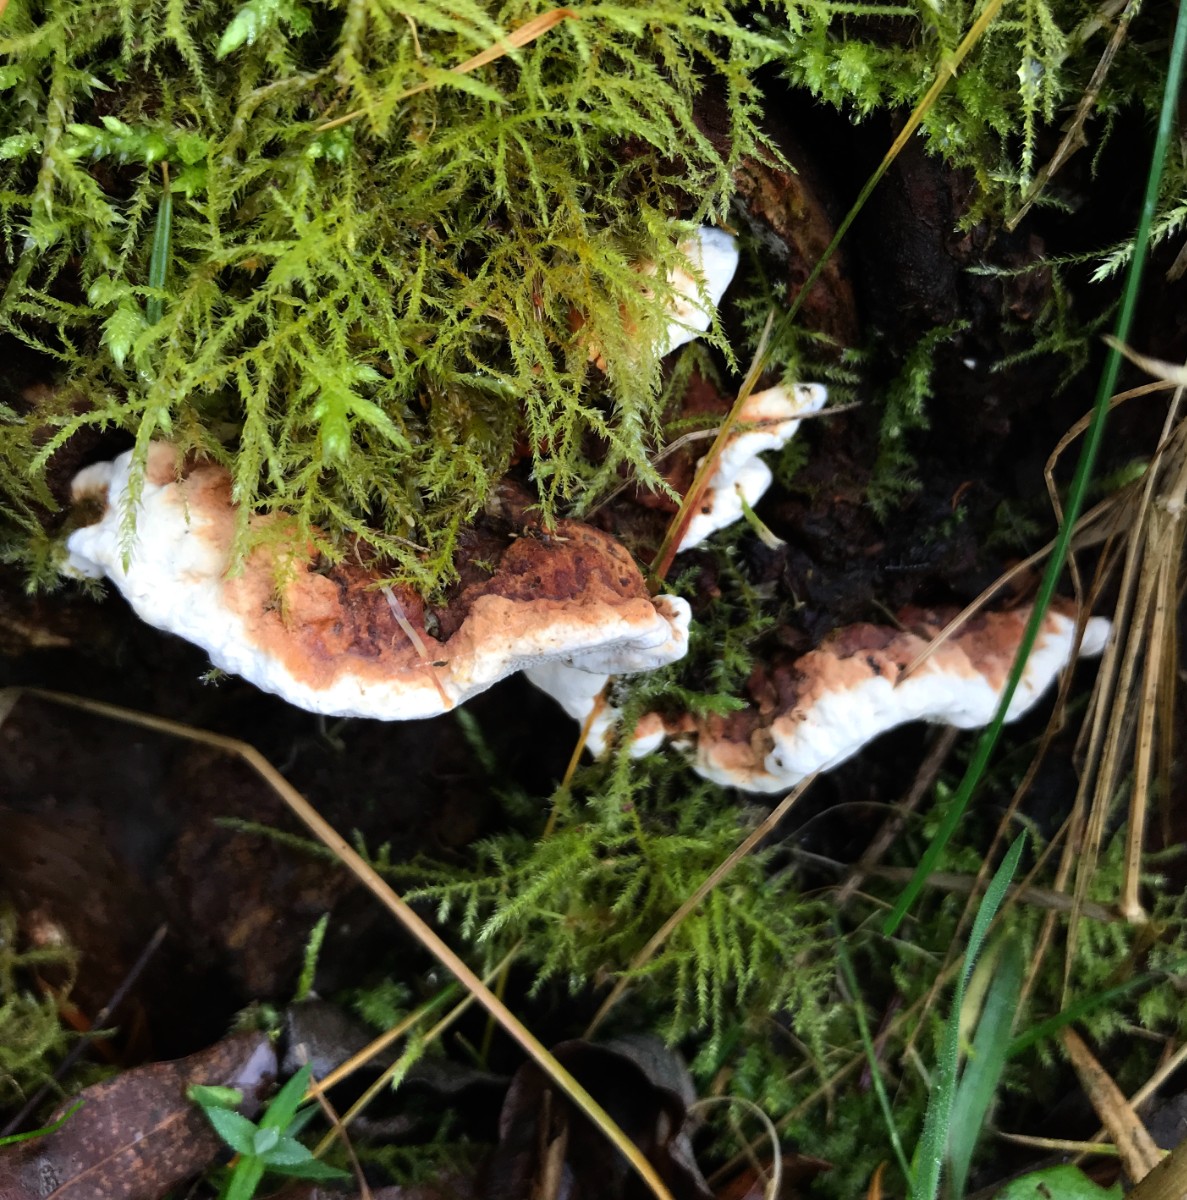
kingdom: Fungi
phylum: Basidiomycota
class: Agaricomycetes
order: Russulales
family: Bondarzewiaceae
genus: Heterobasidion
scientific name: Heterobasidion annosum
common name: almindelig rodfordærver
